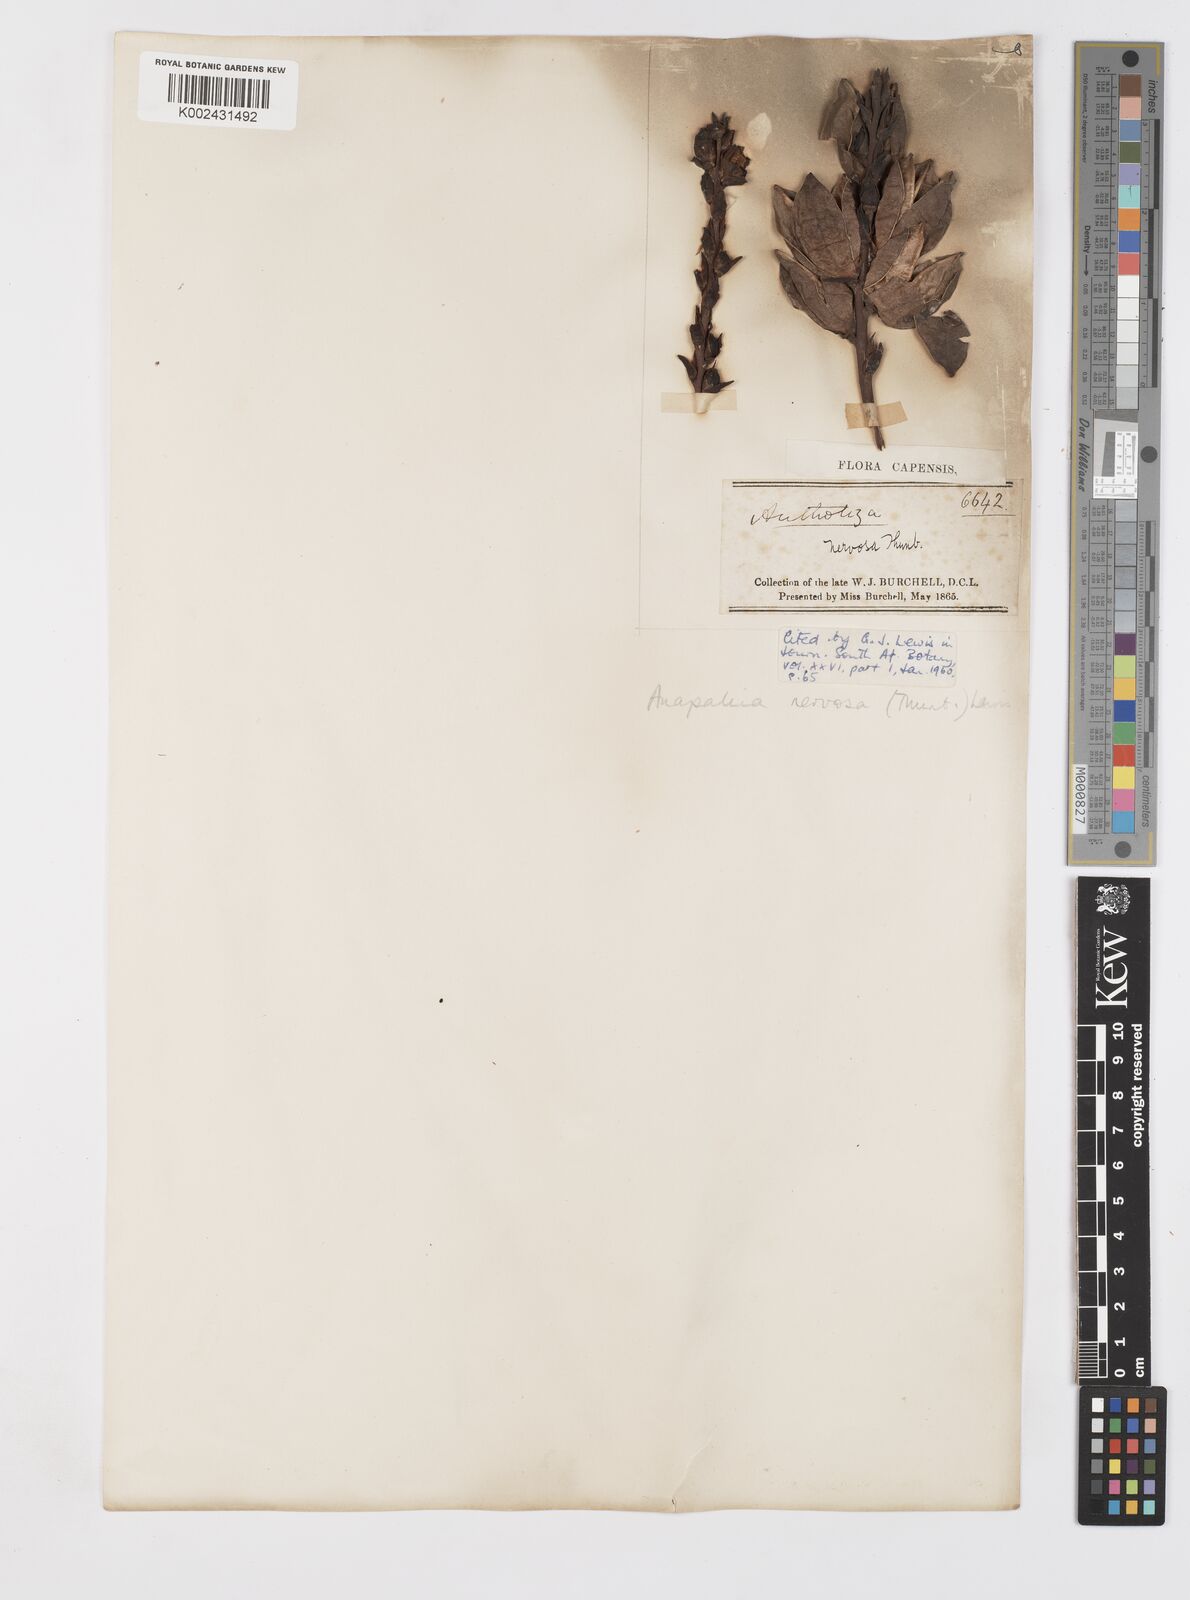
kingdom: Plantae
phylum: Tracheophyta
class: Liliopsida
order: Asparagales
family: Iridaceae
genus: Tritoniopsis
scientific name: Tritoniopsis nervosa
